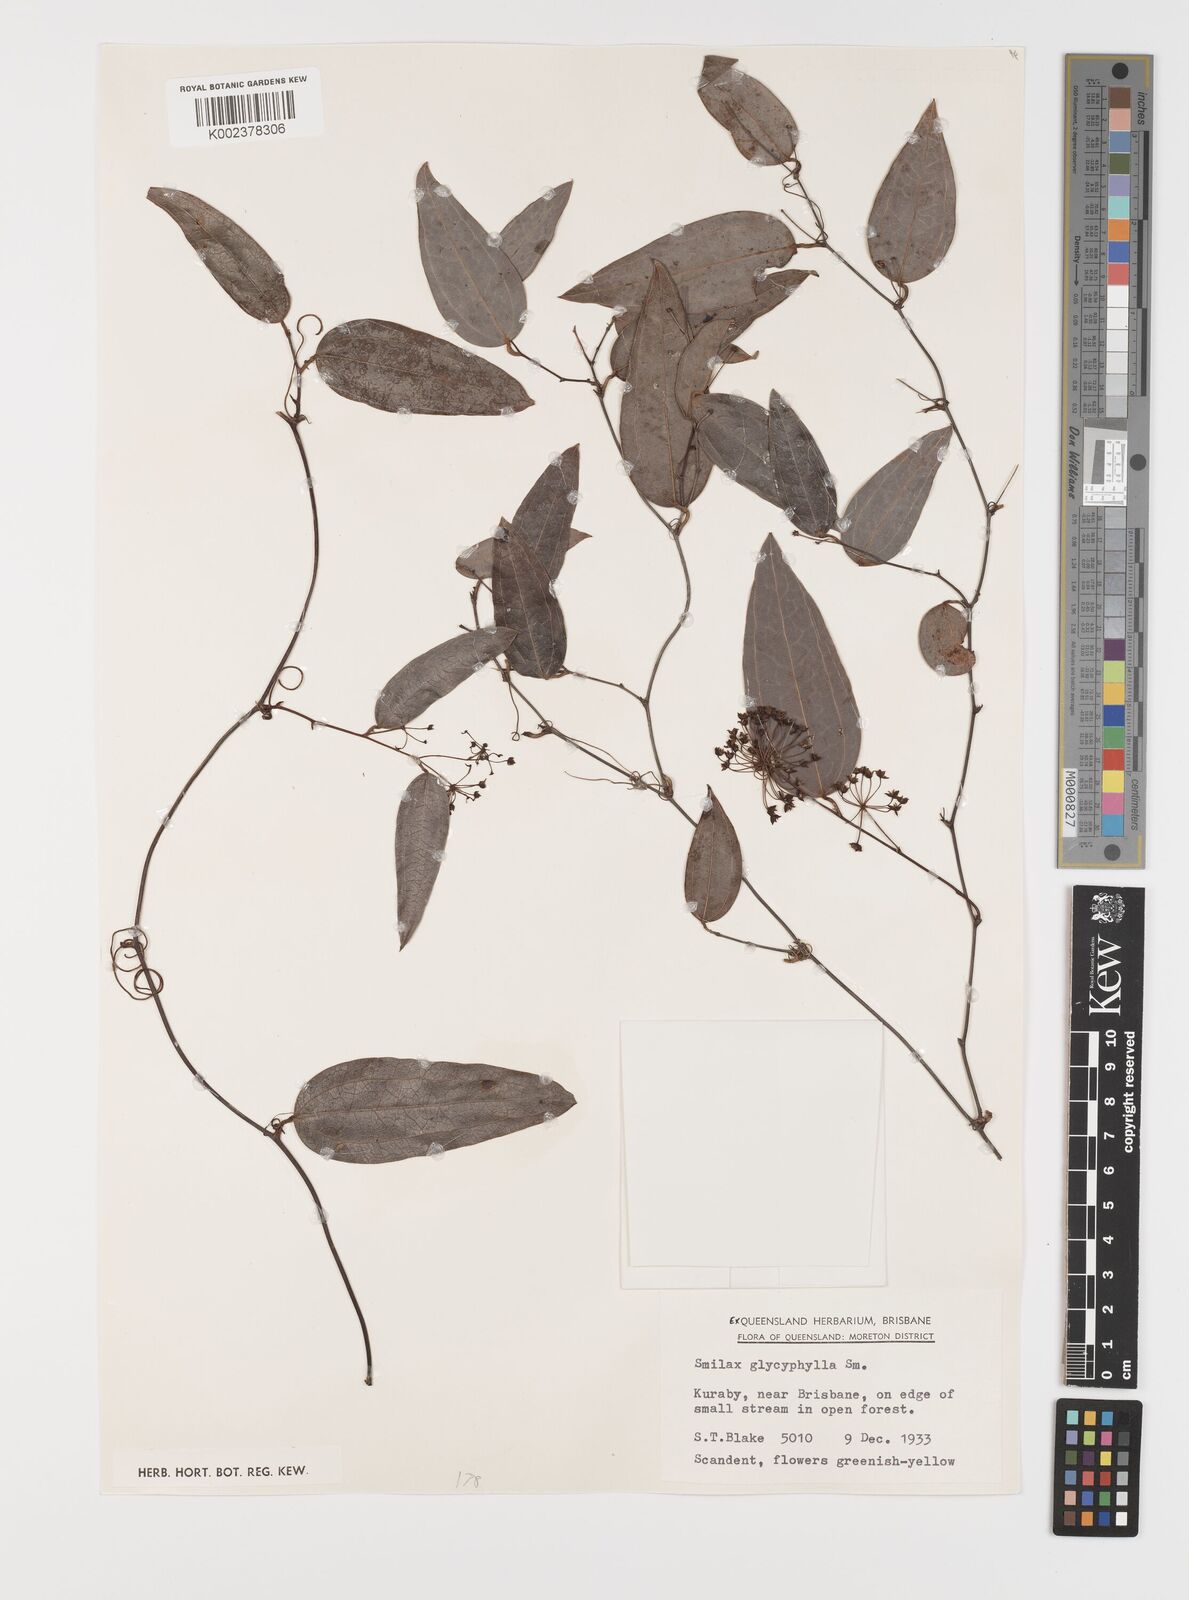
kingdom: Plantae
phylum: Tracheophyta
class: Liliopsida
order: Liliales
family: Smilacaceae
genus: Smilax
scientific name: Smilax leucophylla
